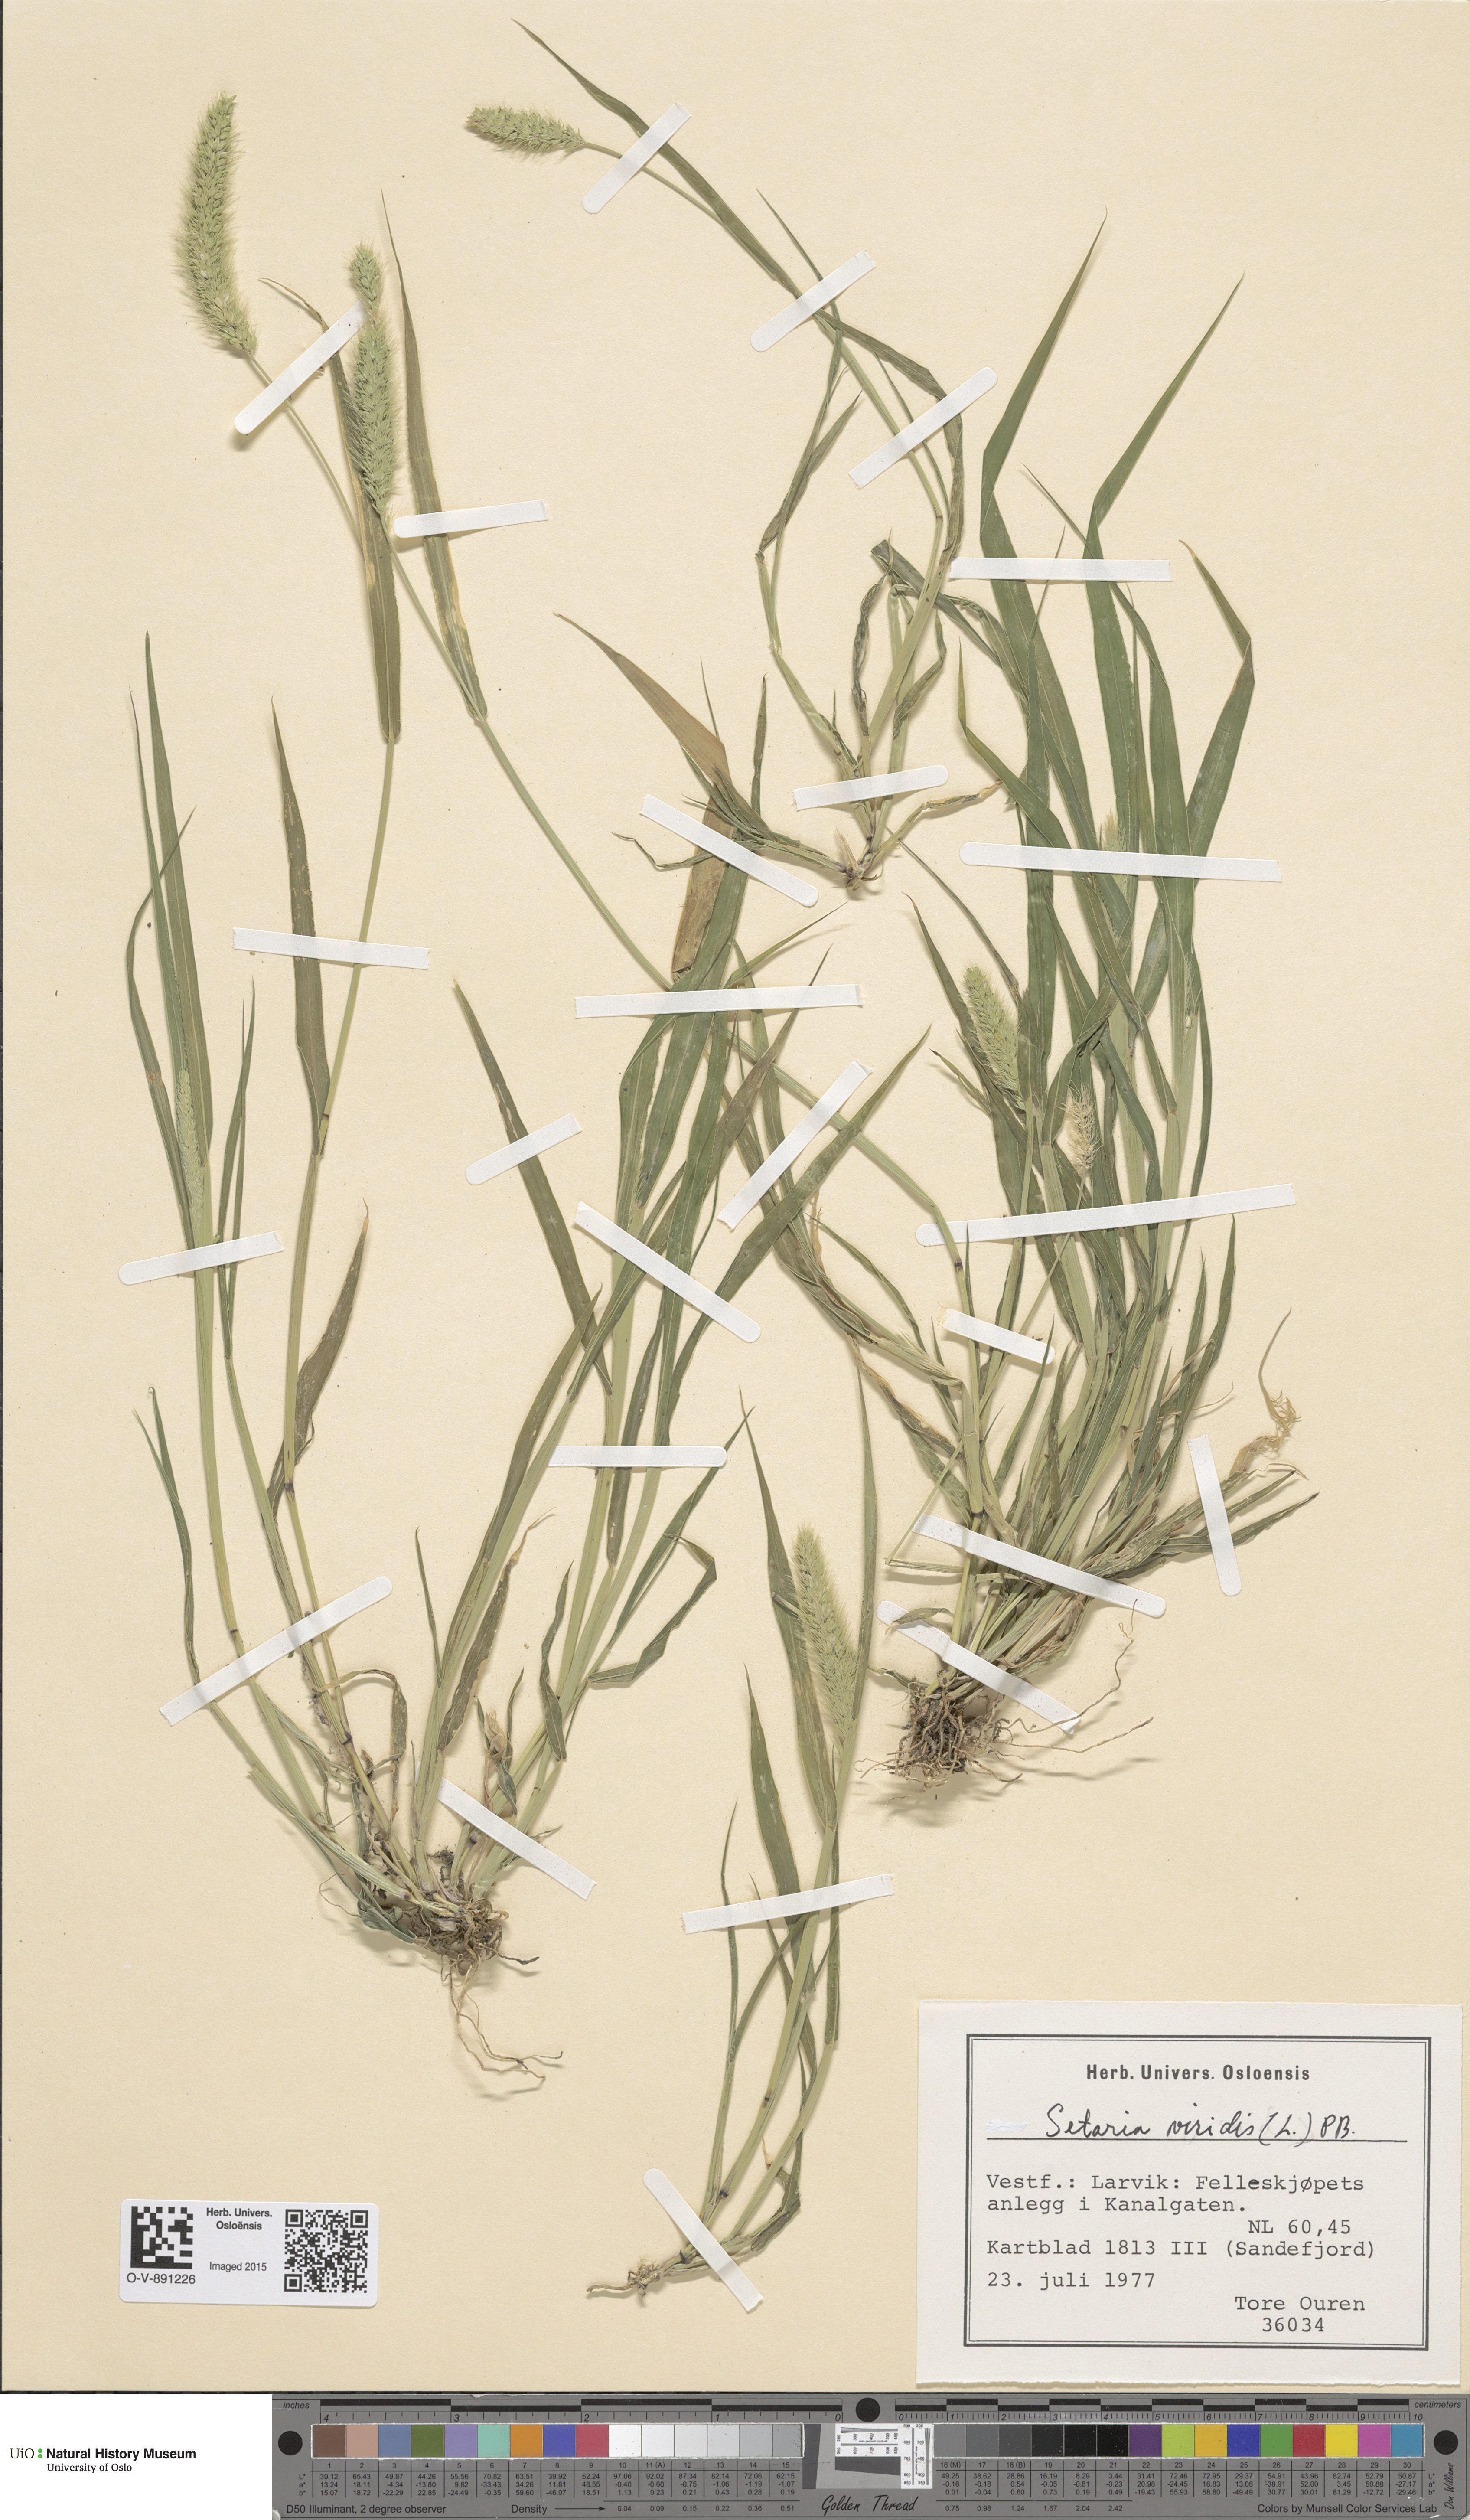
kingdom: Plantae
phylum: Tracheophyta
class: Liliopsida
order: Poales
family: Poaceae
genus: Setaria
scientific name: Setaria viridis
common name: Green bristlegrass
